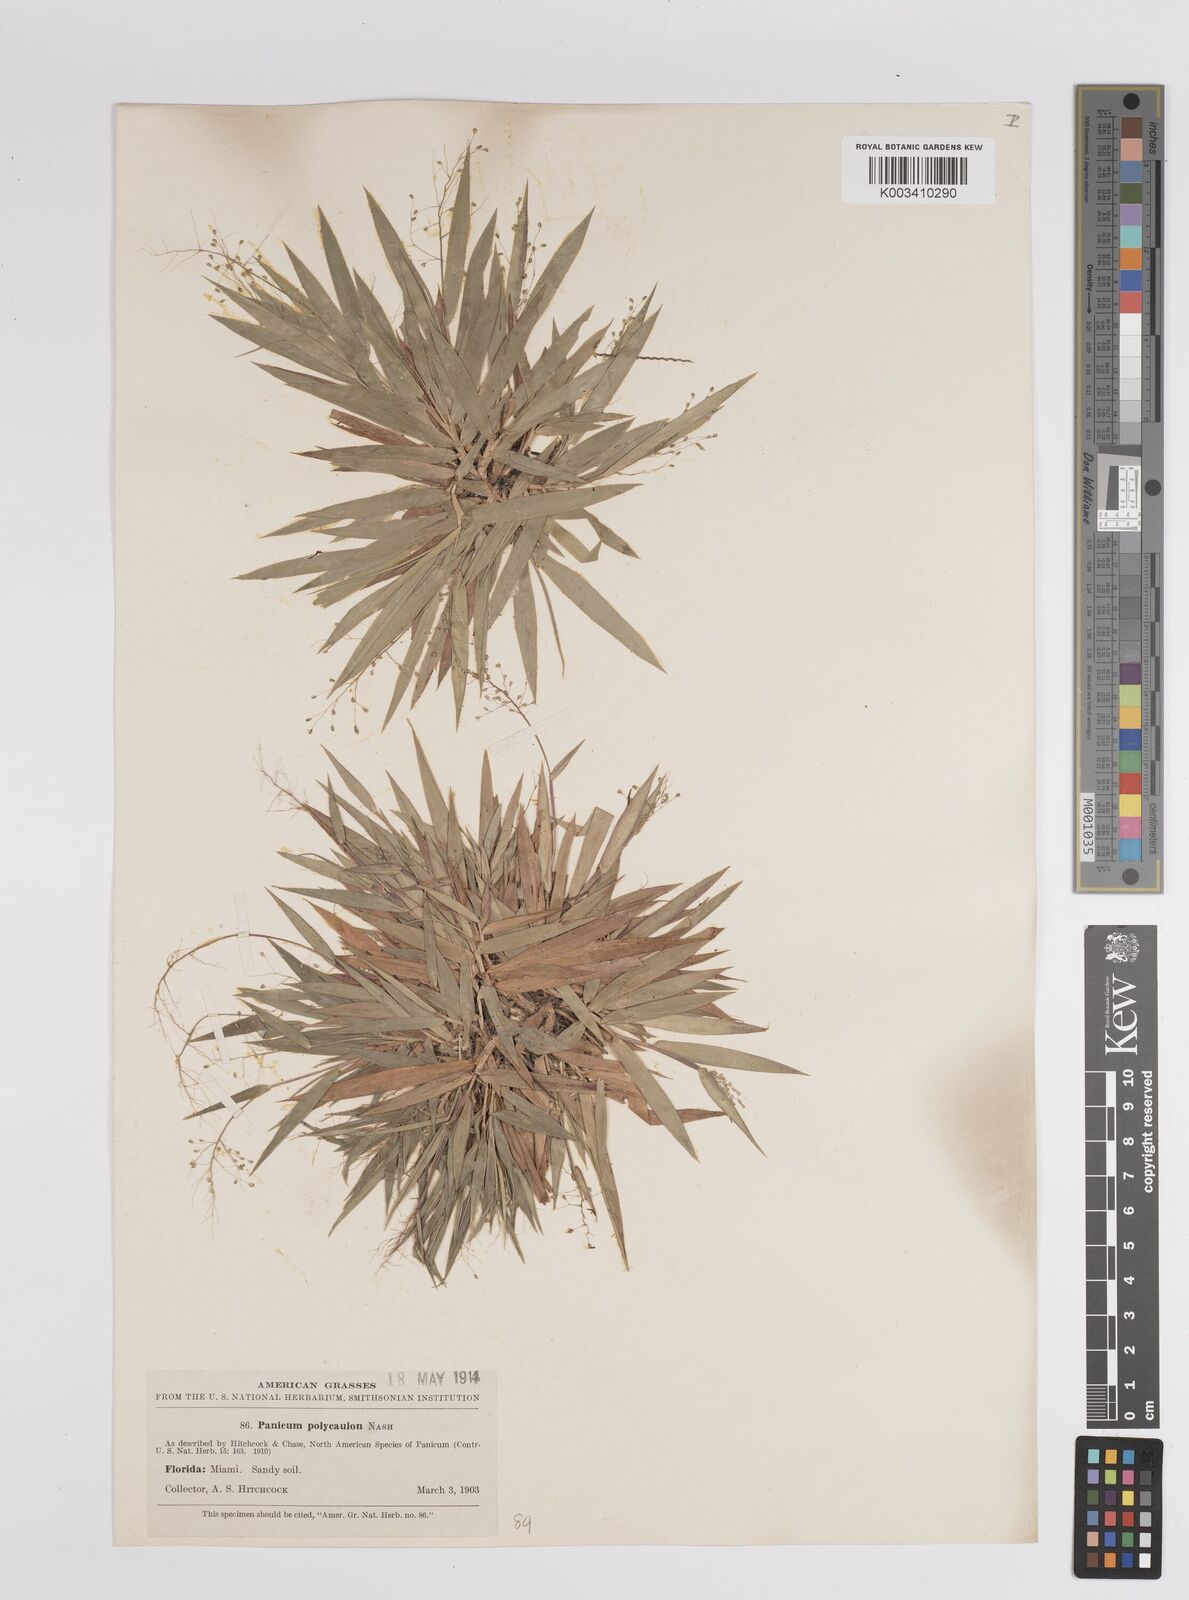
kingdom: Plantae
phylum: Tracheophyta
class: Liliopsida
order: Poales
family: Poaceae
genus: Dichanthelium
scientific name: Dichanthelium strigosum
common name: Cushion-tuft panic grass
